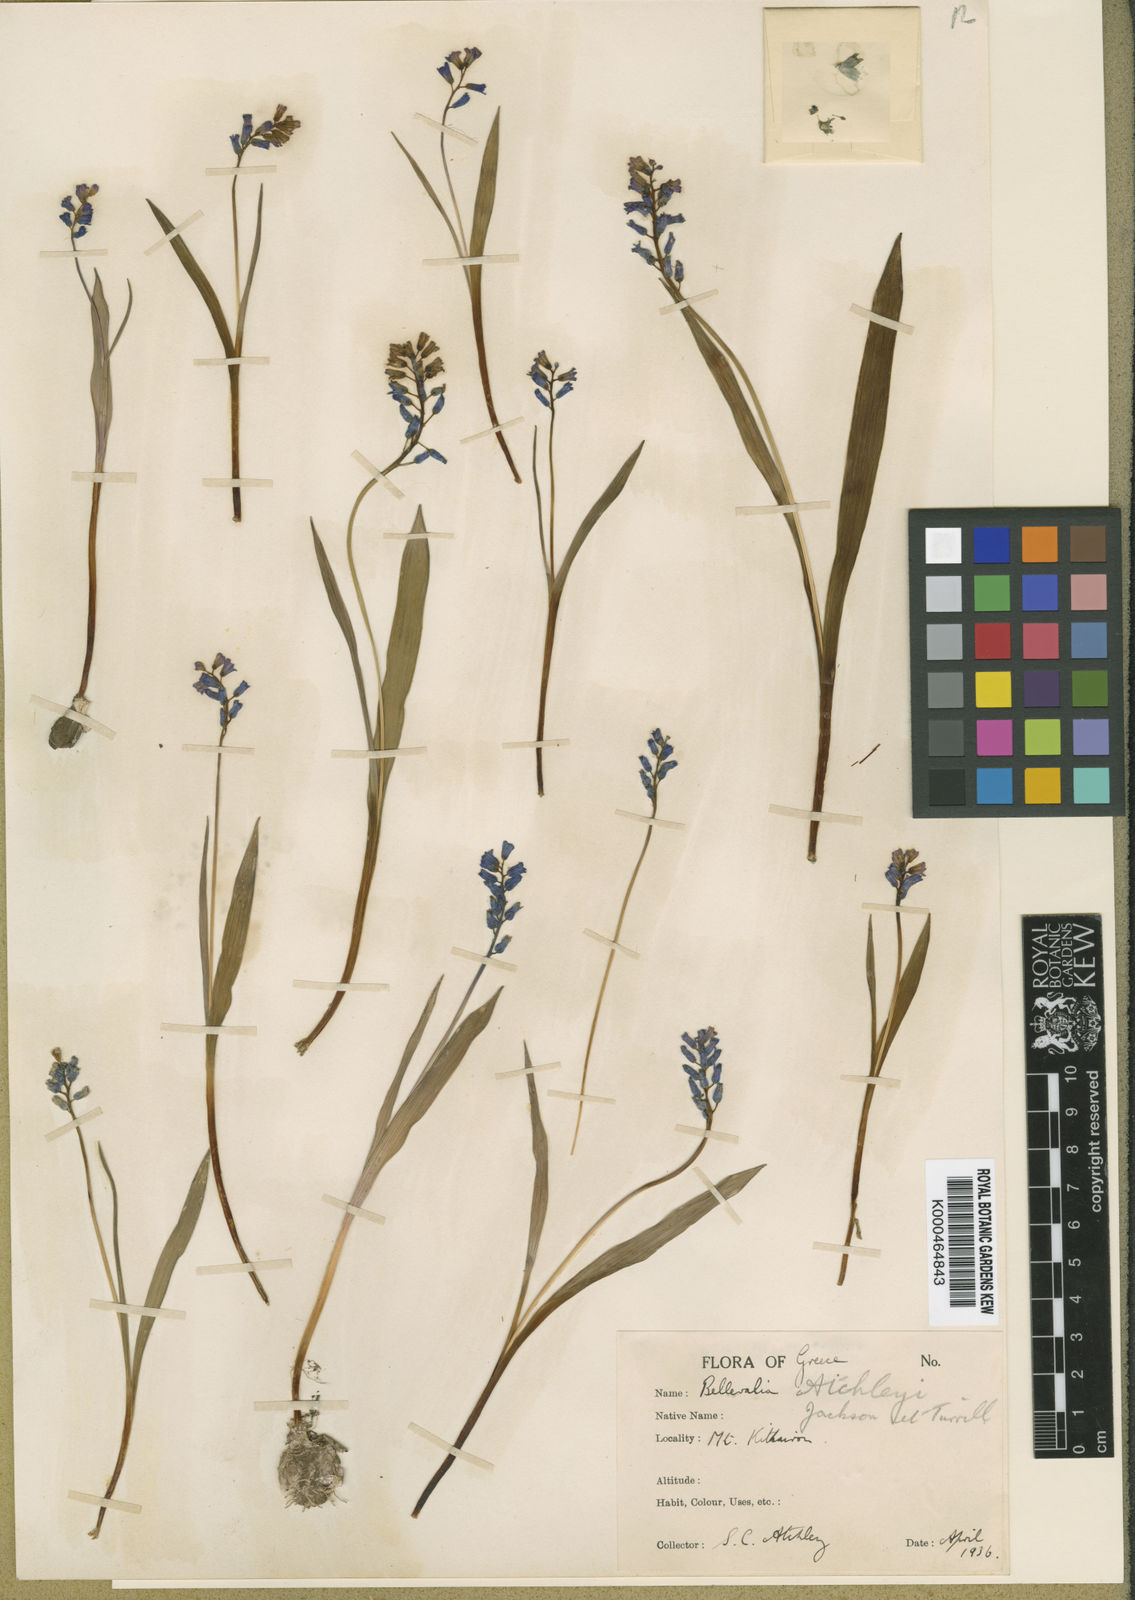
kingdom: Plantae
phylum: Tracheophyta
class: Liliopsida
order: Asparagales
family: Asparagaceae
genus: Hyacinthella
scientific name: Hyacinthella leucophaea
